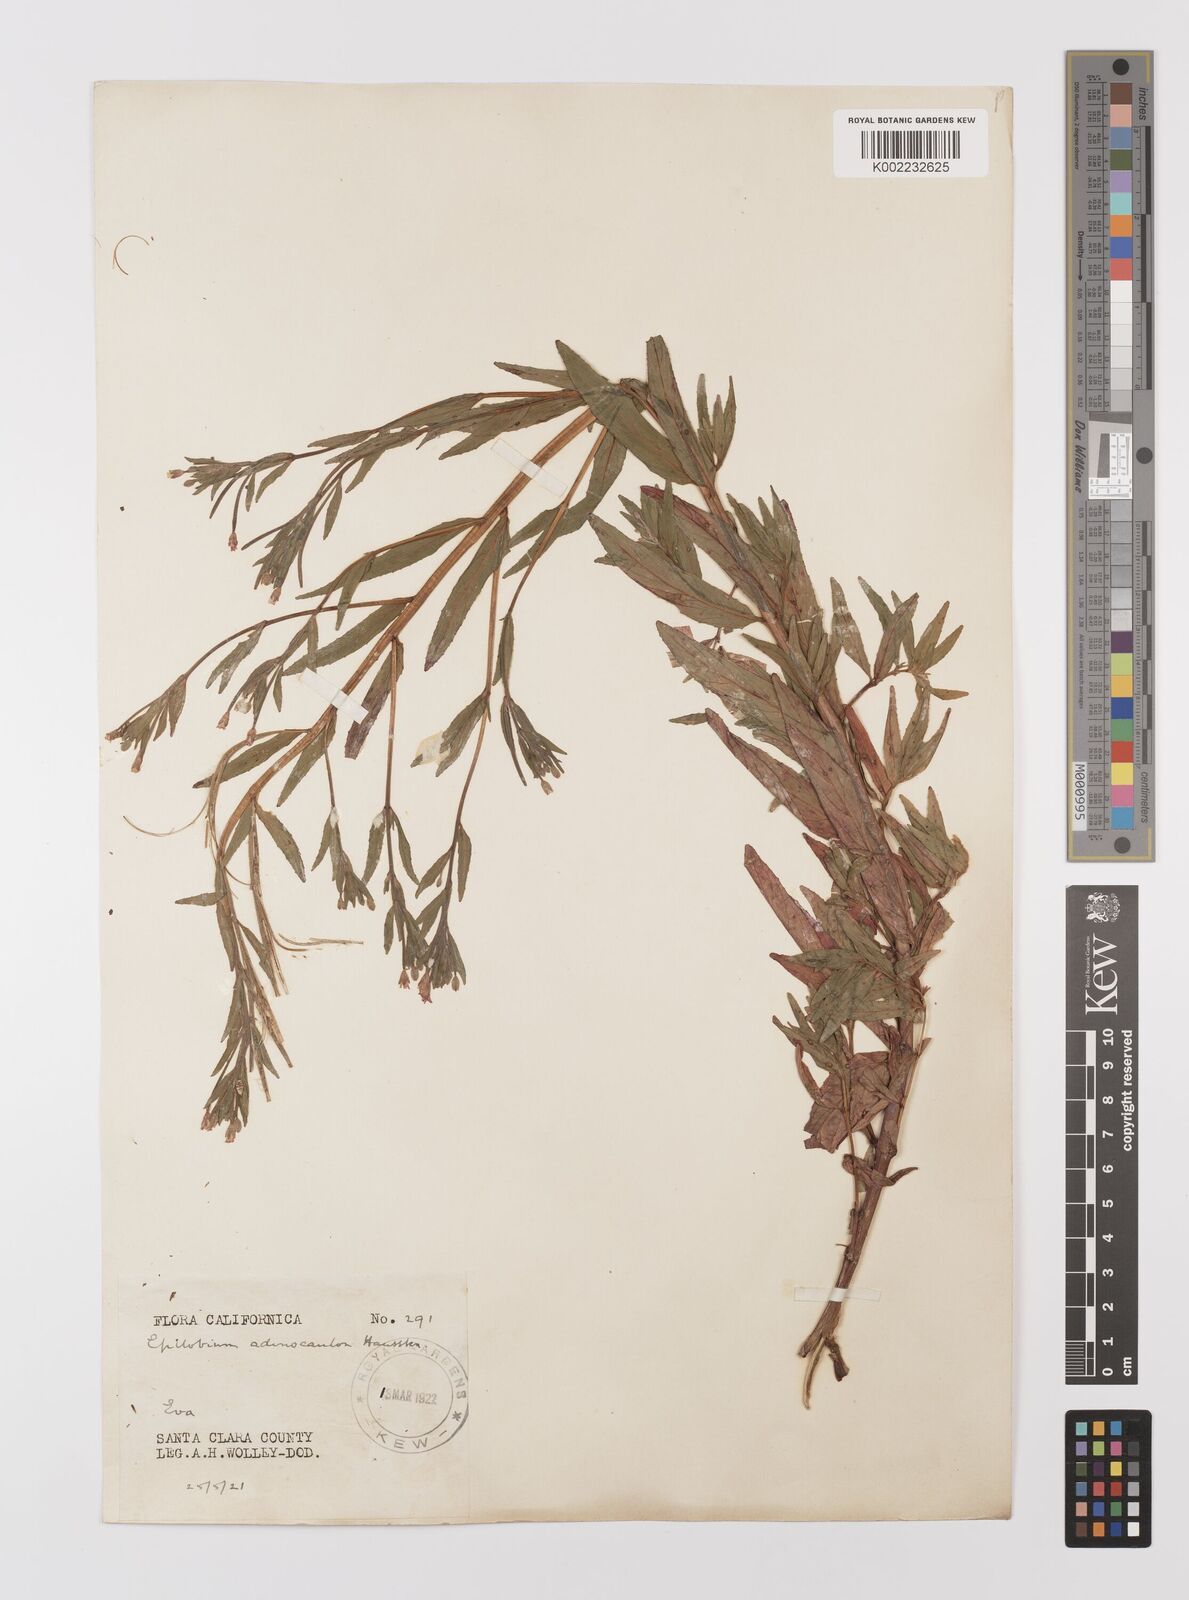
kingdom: Plantae
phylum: Tracheophyta
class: Magnoliopsida
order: Myrtales
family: Onagraceae
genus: Epilobium
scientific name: Epilobium ciliatum
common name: American willowherb
